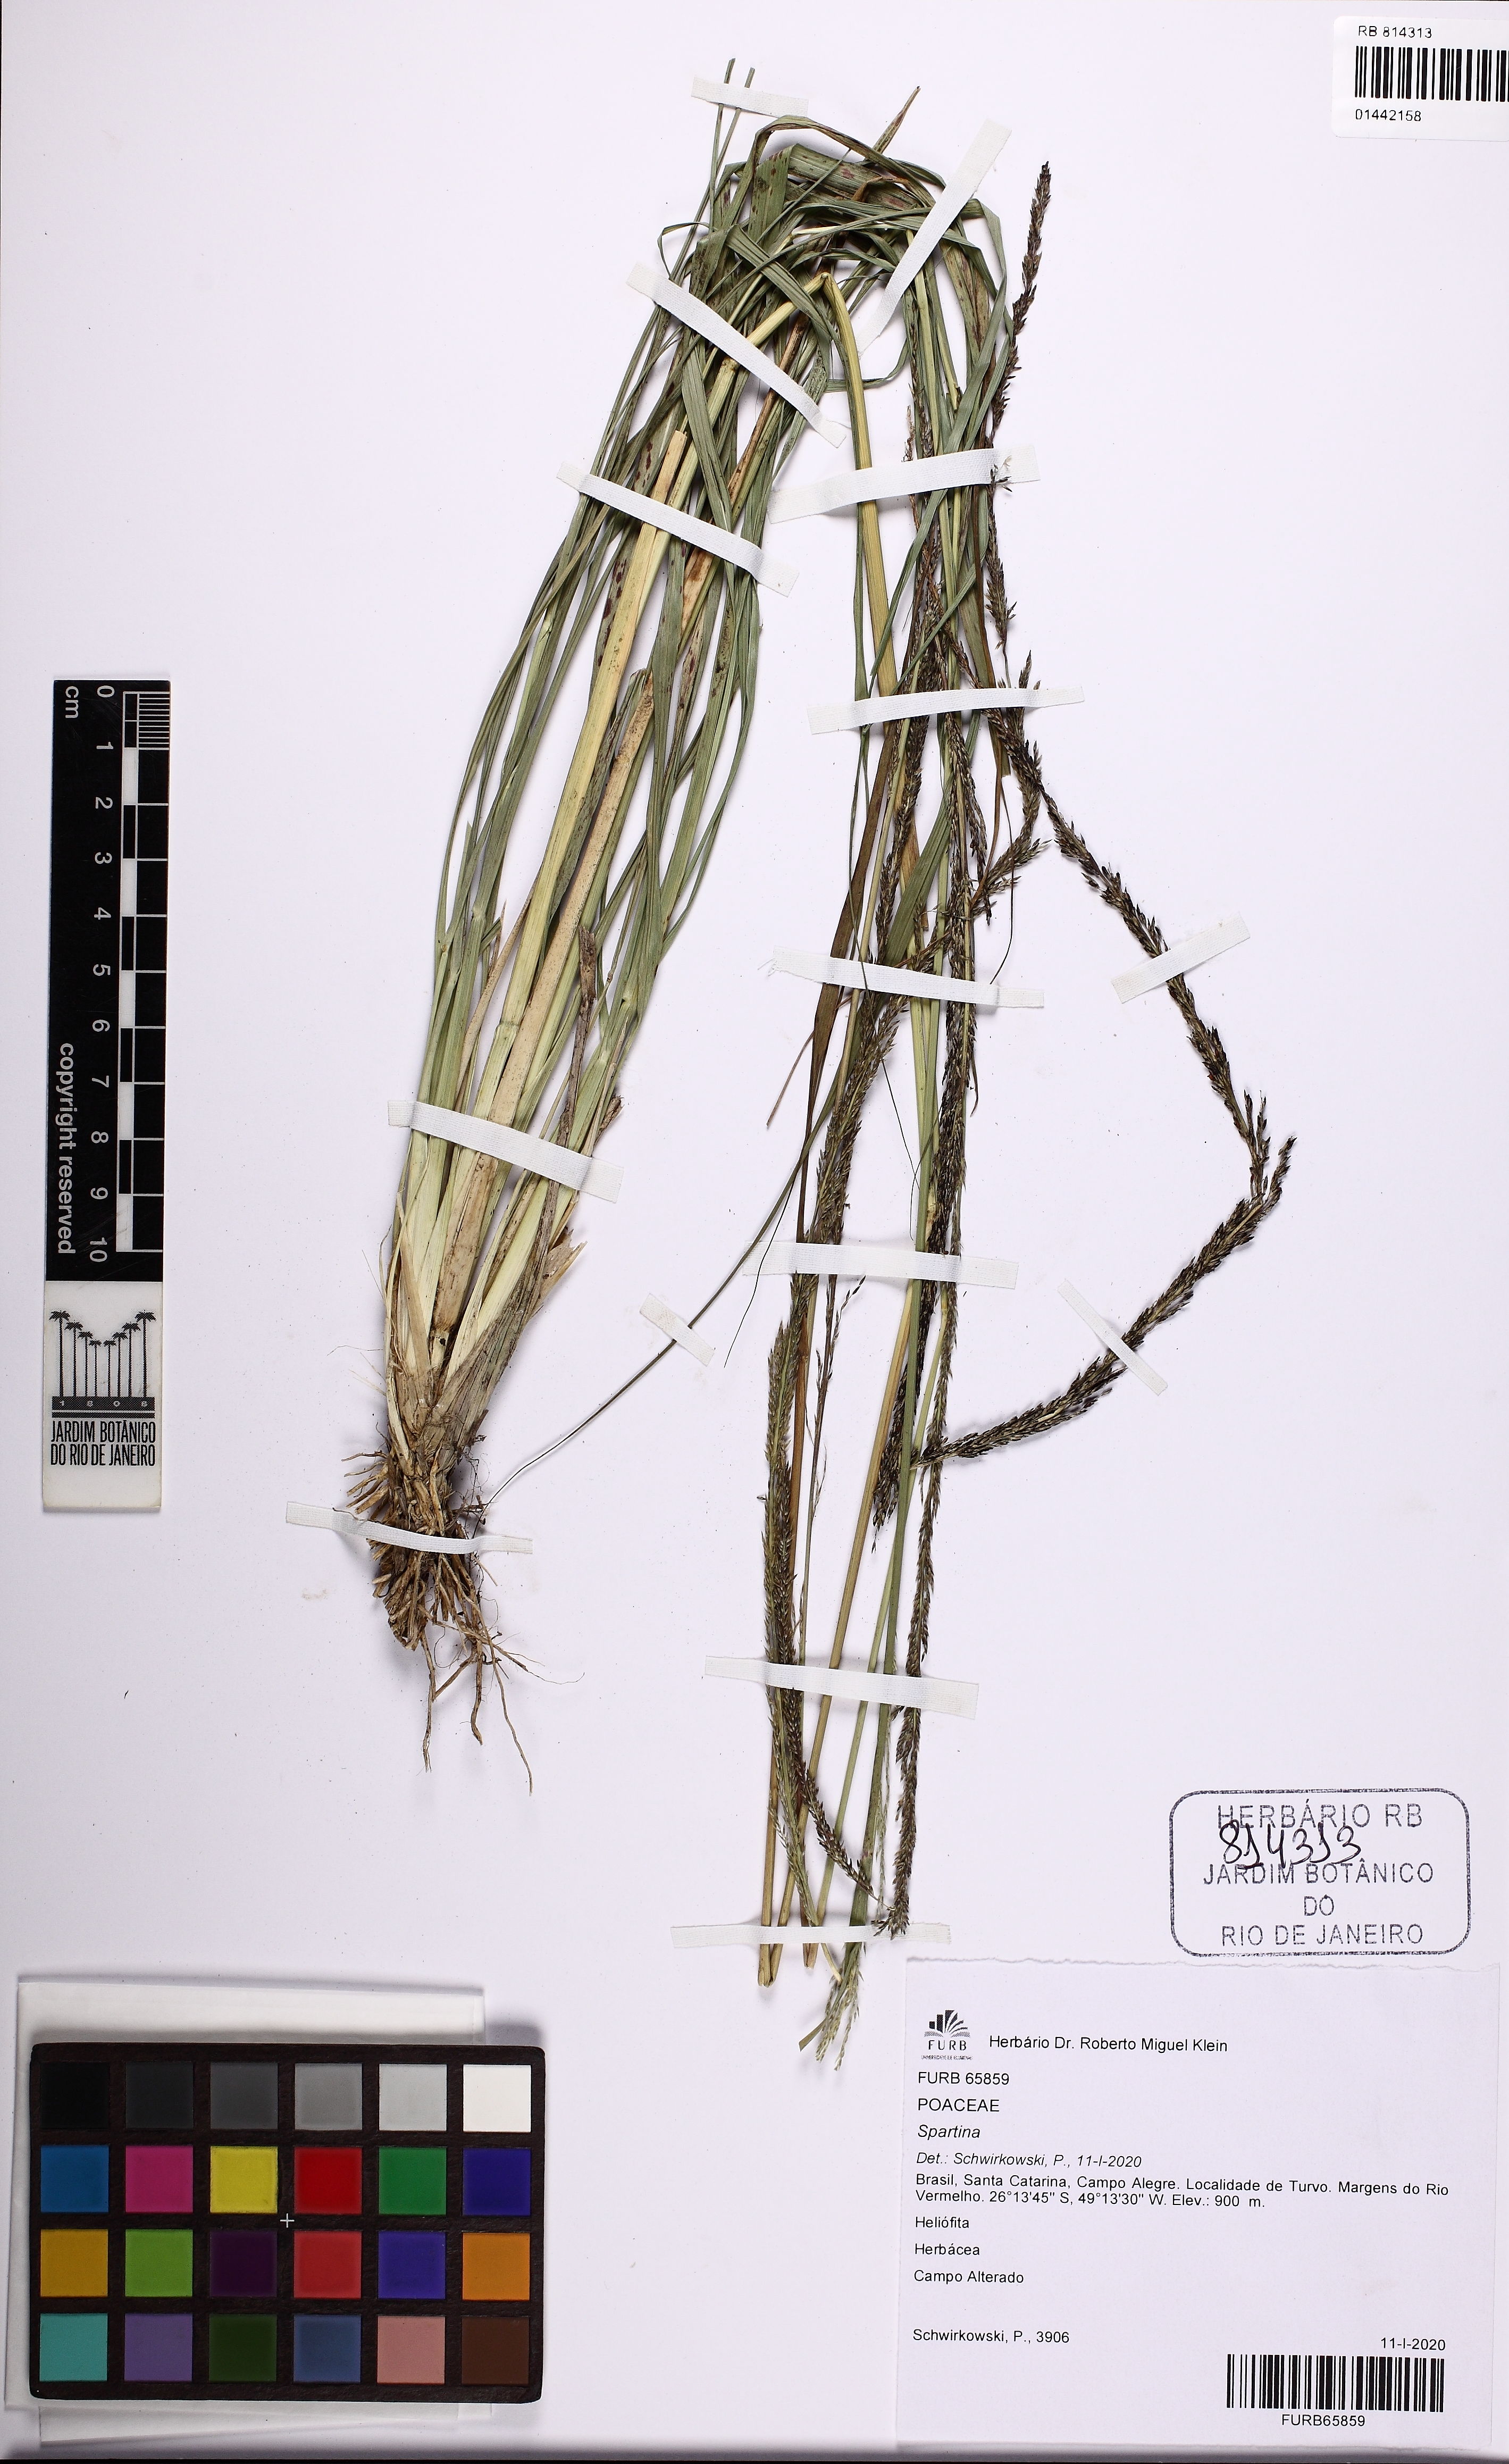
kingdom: Animalia
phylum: Mollusca
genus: Spartina
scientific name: Spartina
